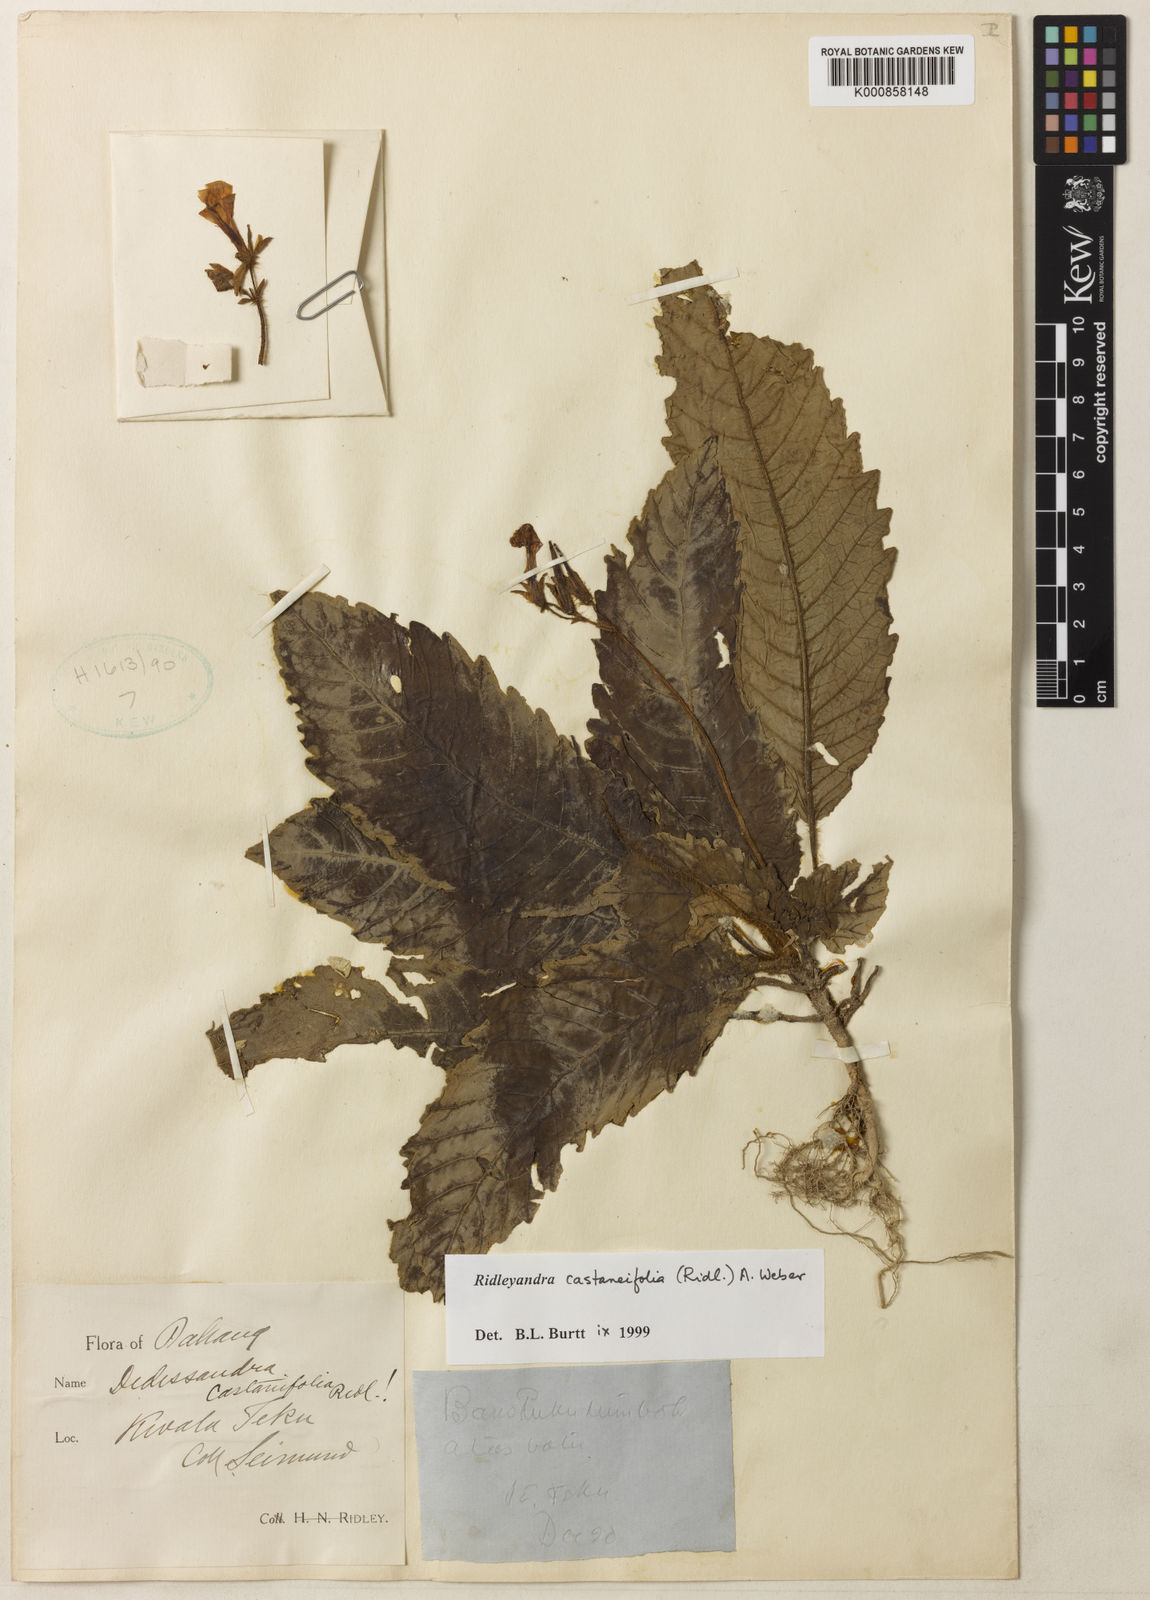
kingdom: Plantae
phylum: Tracheophyta
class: Magnoliopsida
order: Lamiales
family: Gesneriaceae
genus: Ridleyandra
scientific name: Ridleyandra castaneifolia
